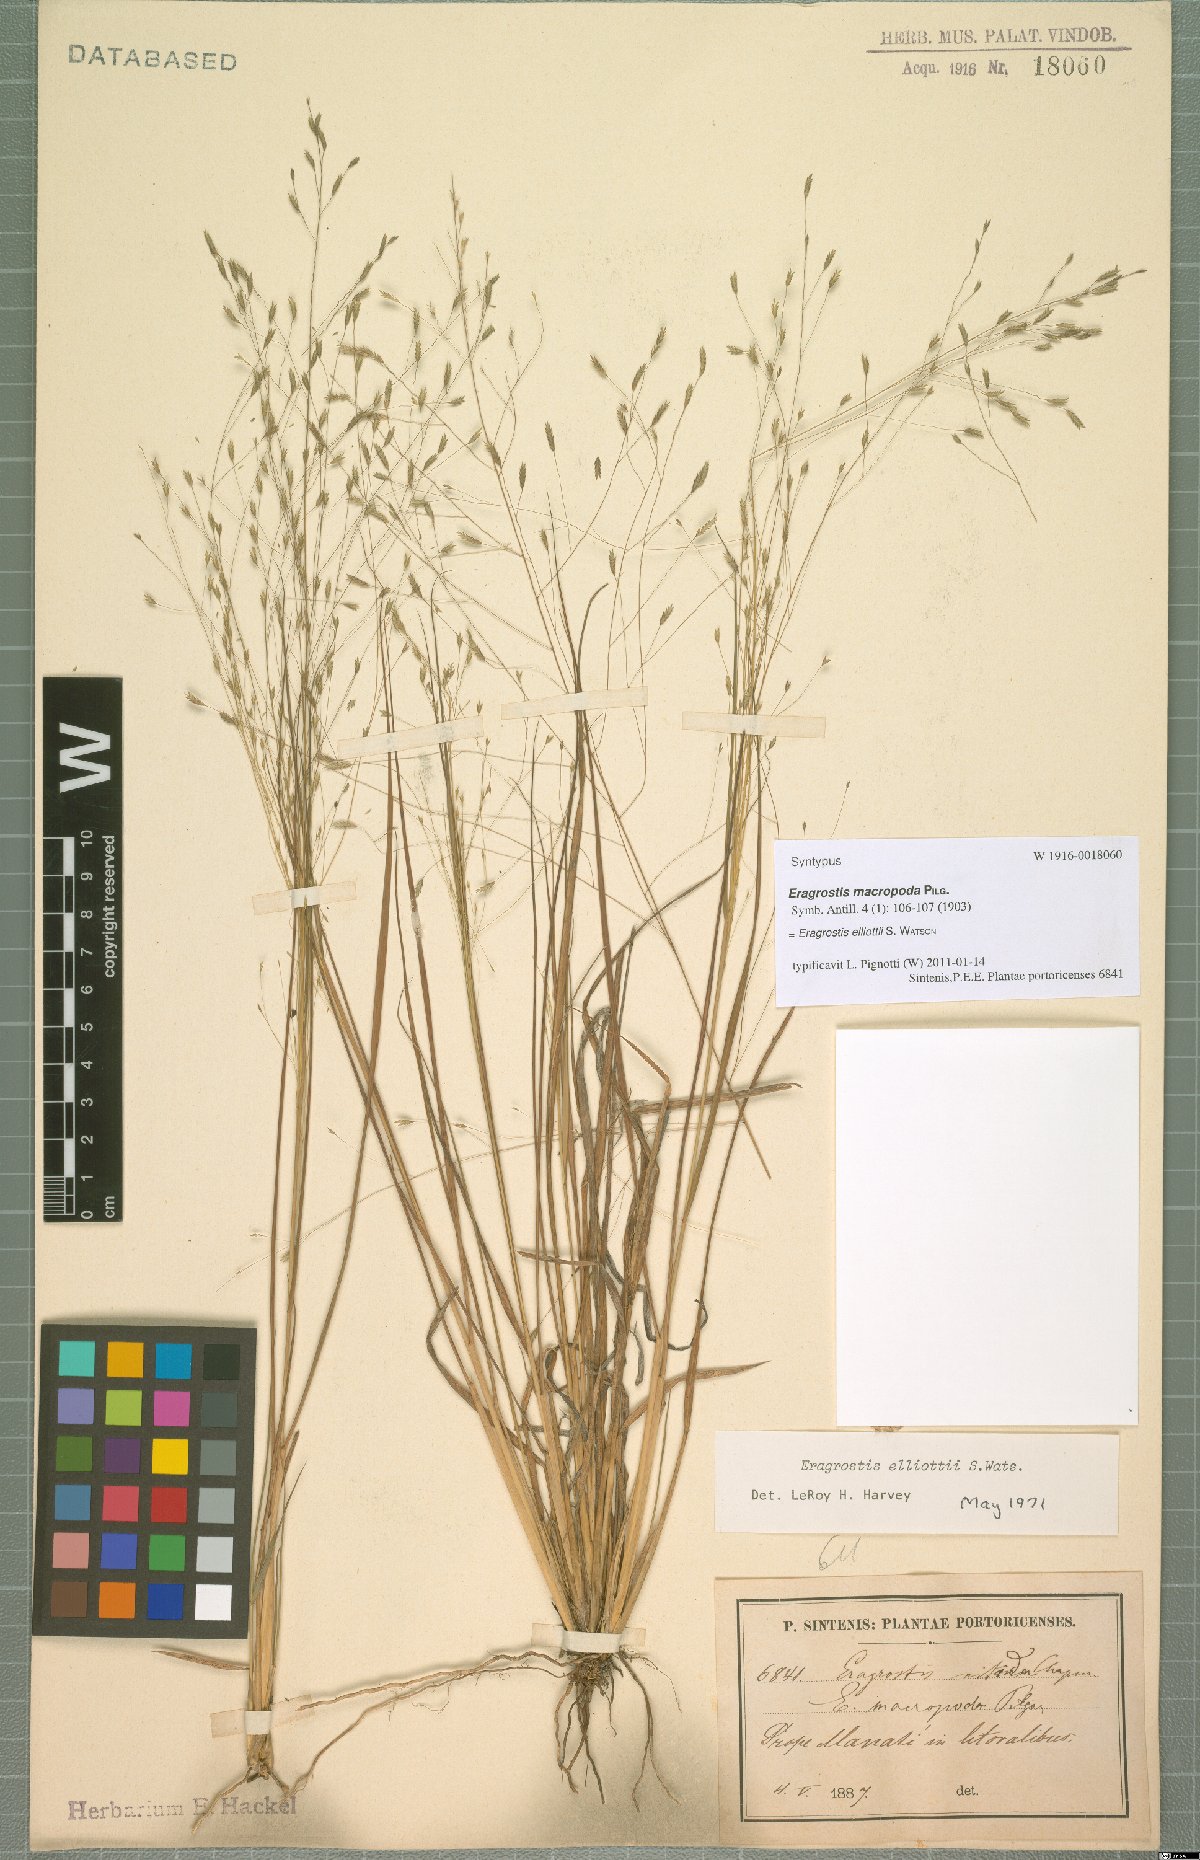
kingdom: Plantae
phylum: Tracheophyta
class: Liliopsida
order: Poales
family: Poaceae
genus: Eragrostis
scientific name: Eragrostis elliottii
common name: Elliott's love grass
